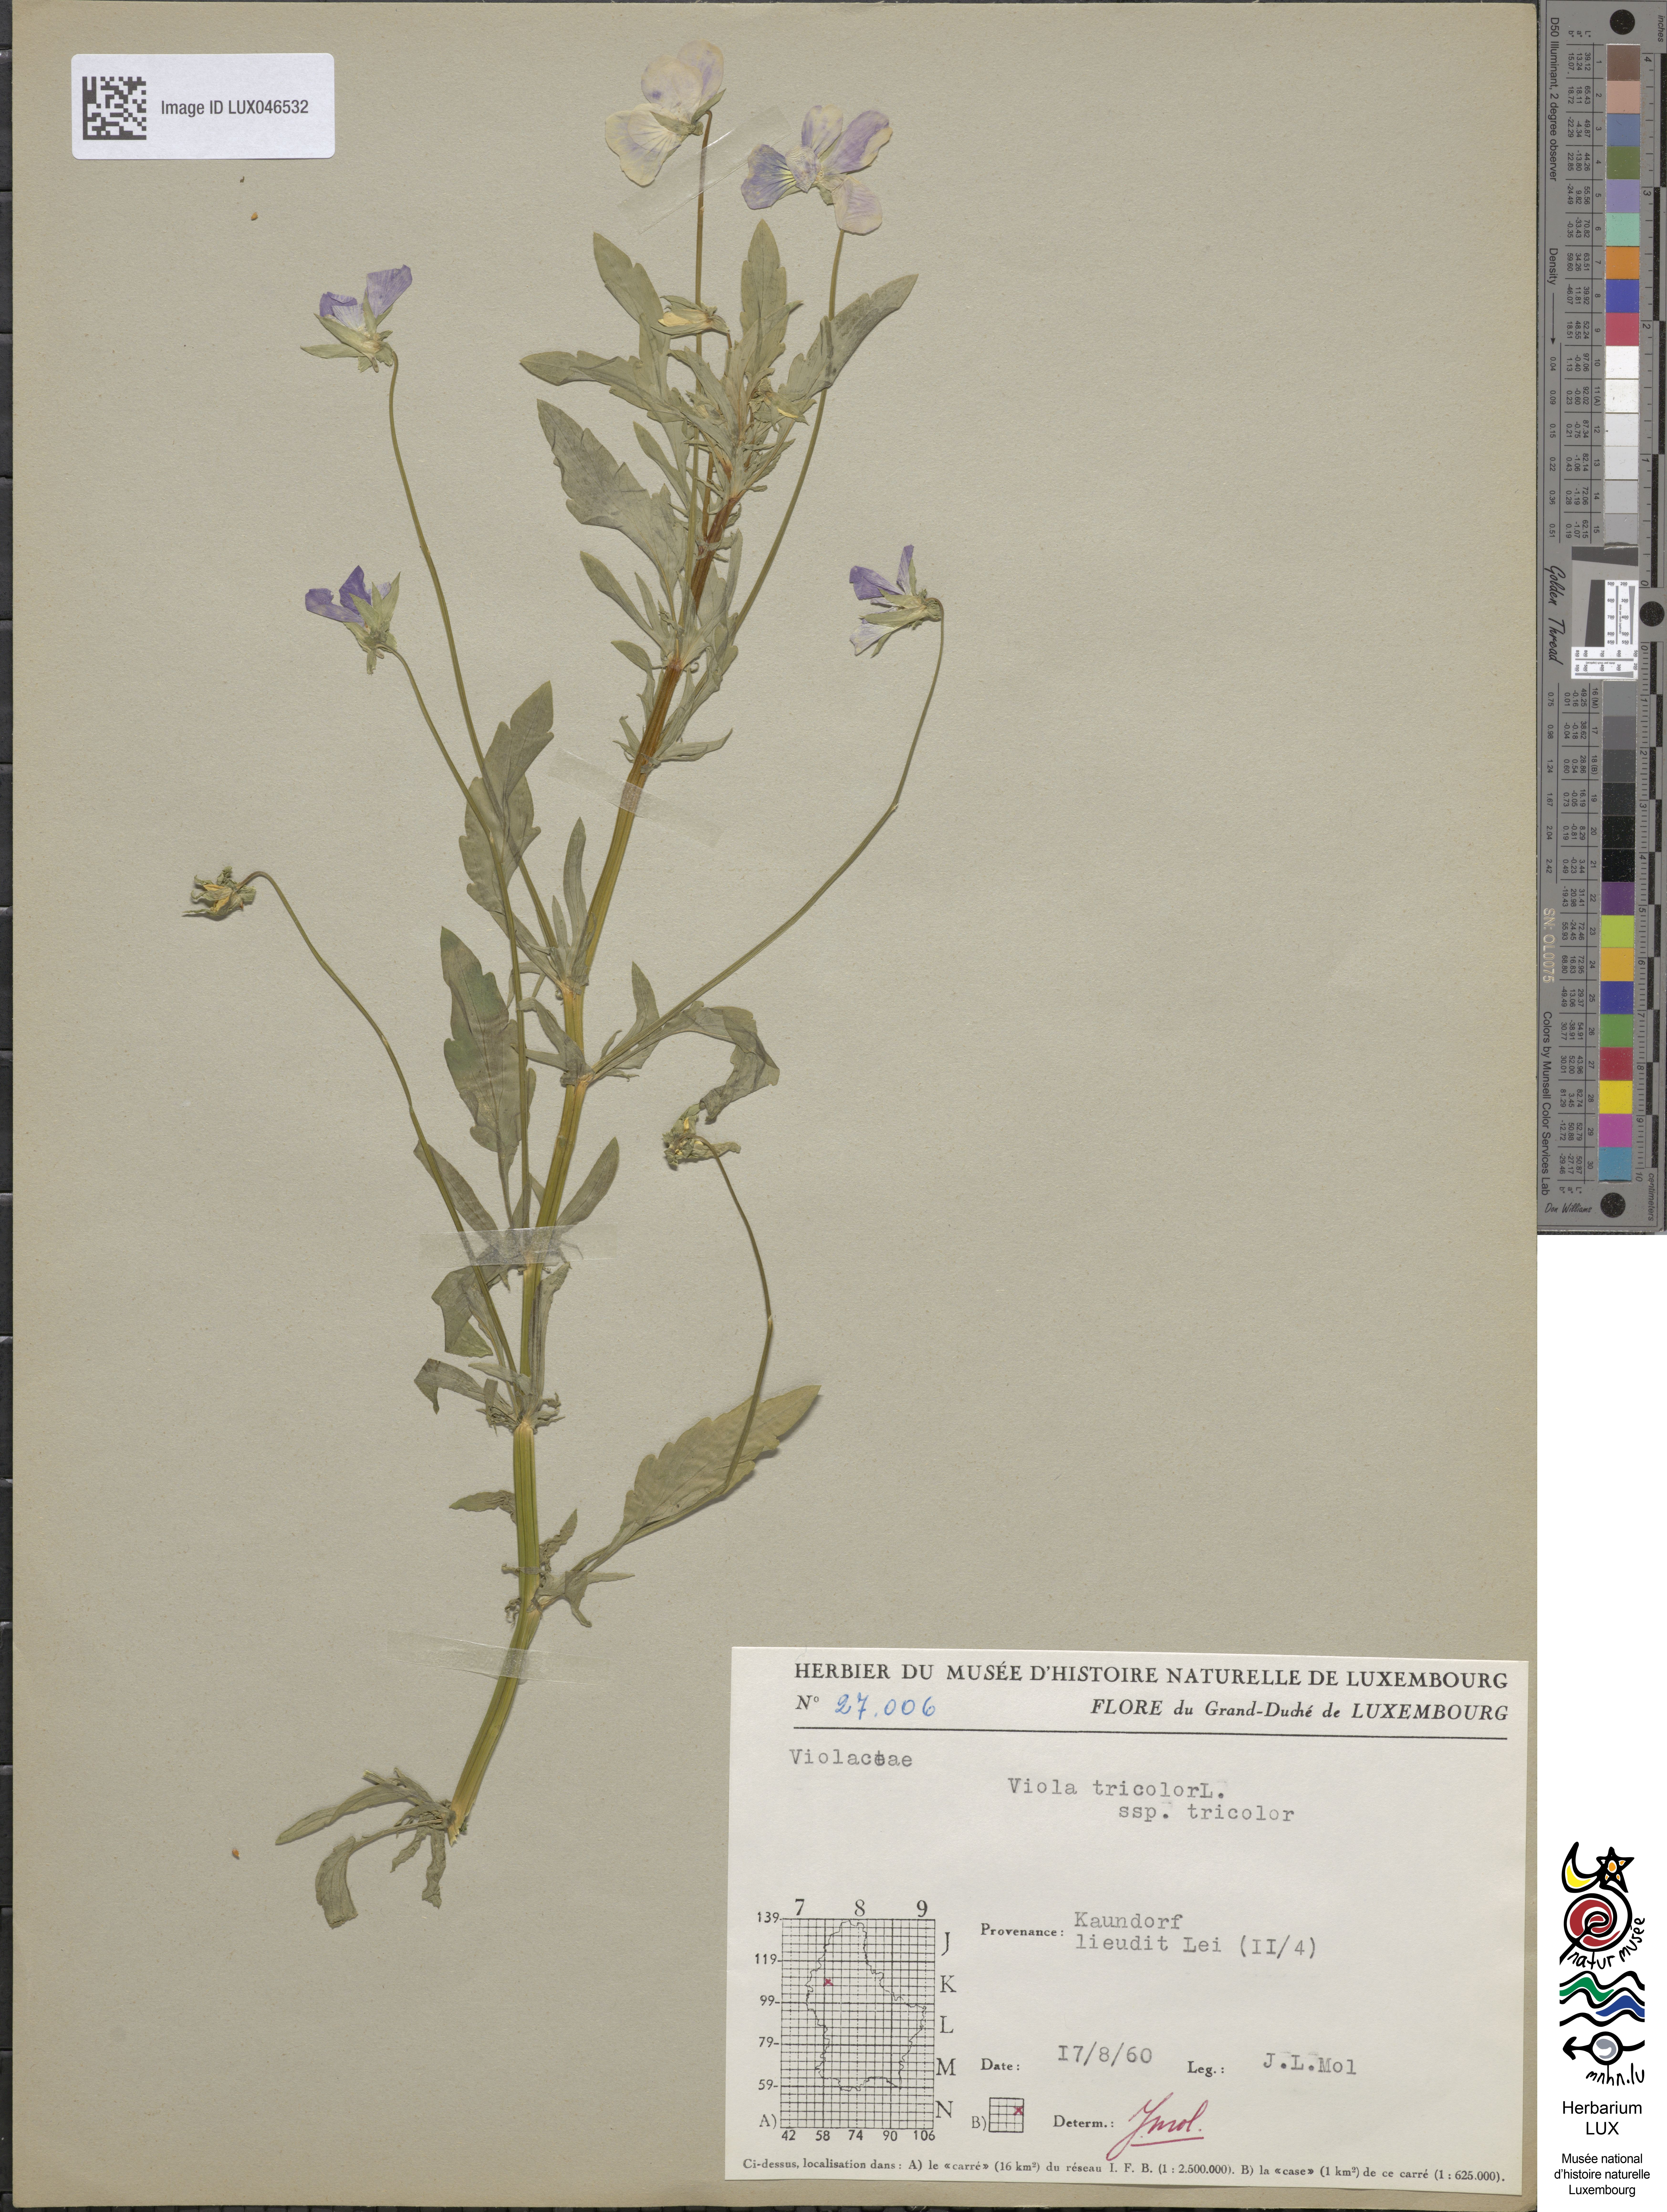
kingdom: Plantae
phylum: Tracheophyta
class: Magnoliopsida
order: Malpighiales
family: Violaceae
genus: Viola
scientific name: Viola tricolor
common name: Pansy
